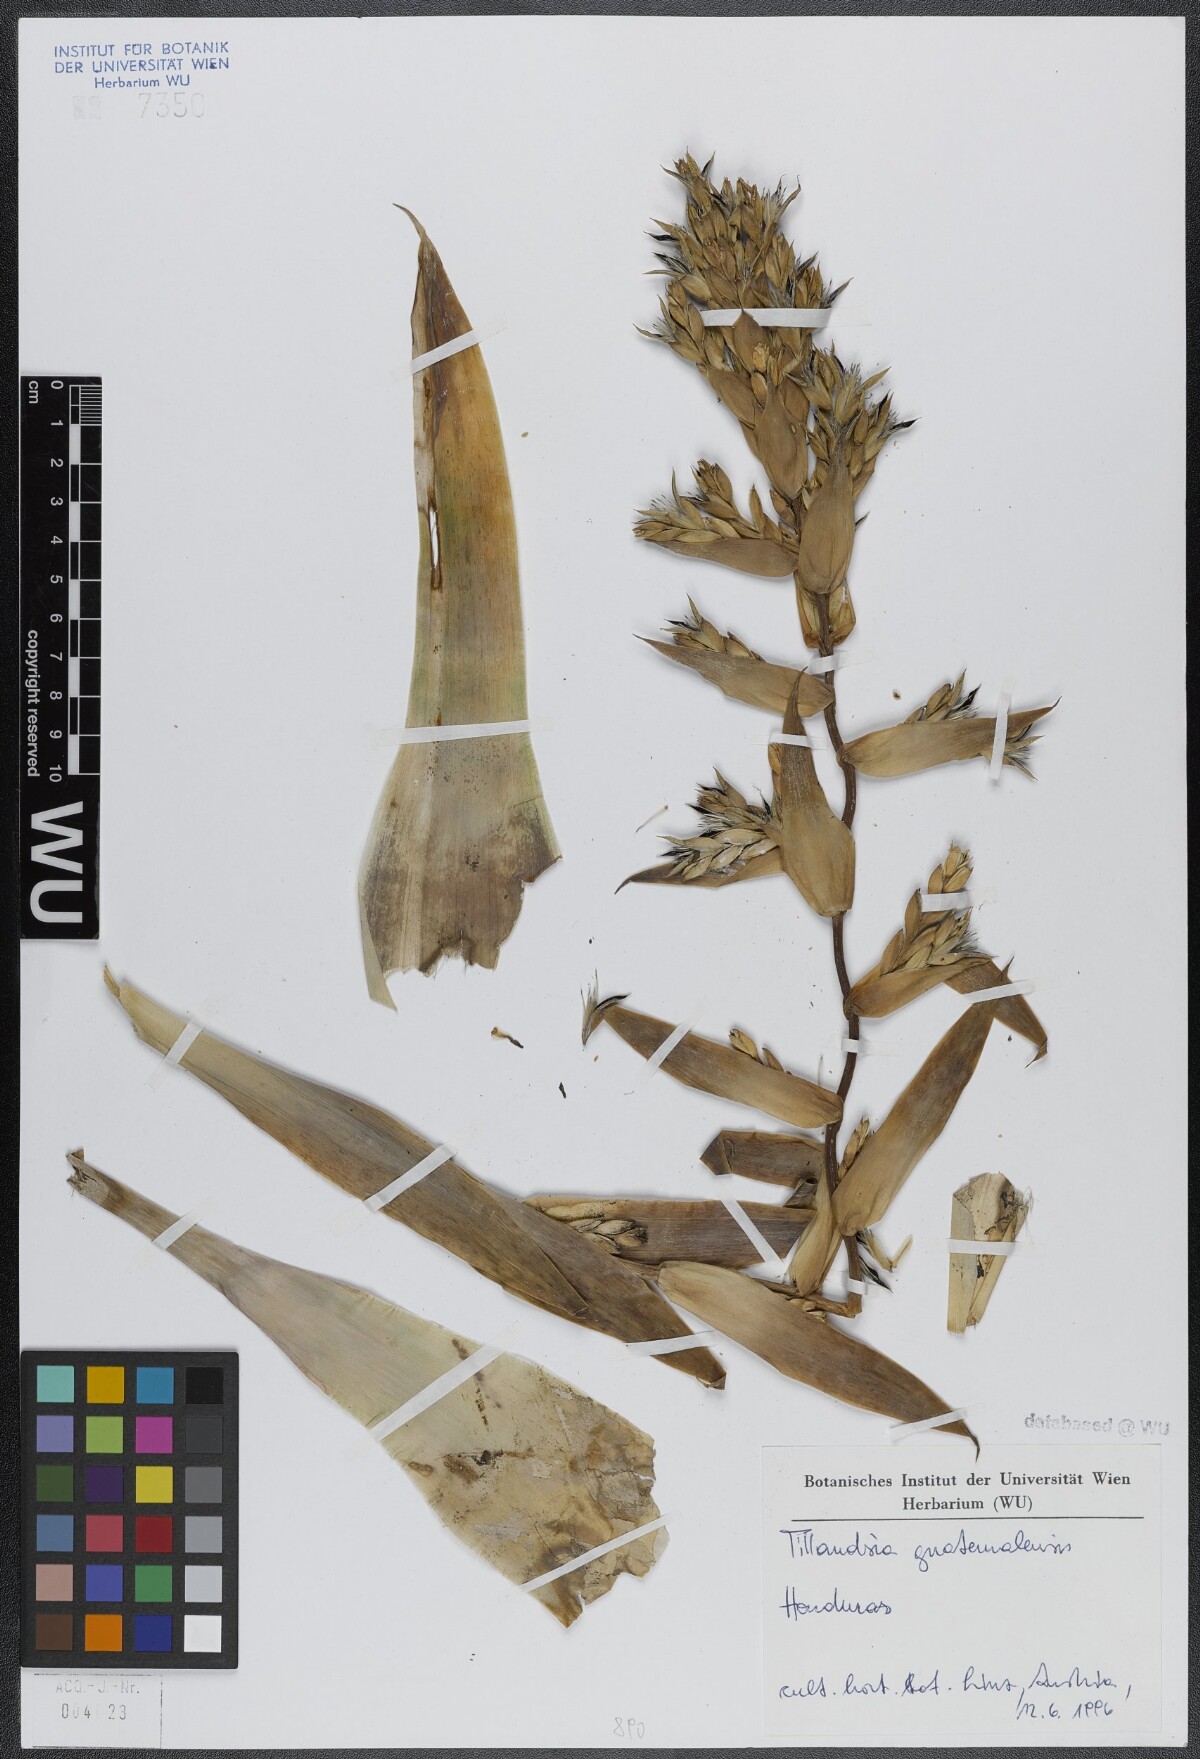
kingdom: Plantae
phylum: Tracheophyta
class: Liliopsida
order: Poales
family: Bromeliaceae
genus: Tillandsia
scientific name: Tillandsia guatemalensis
